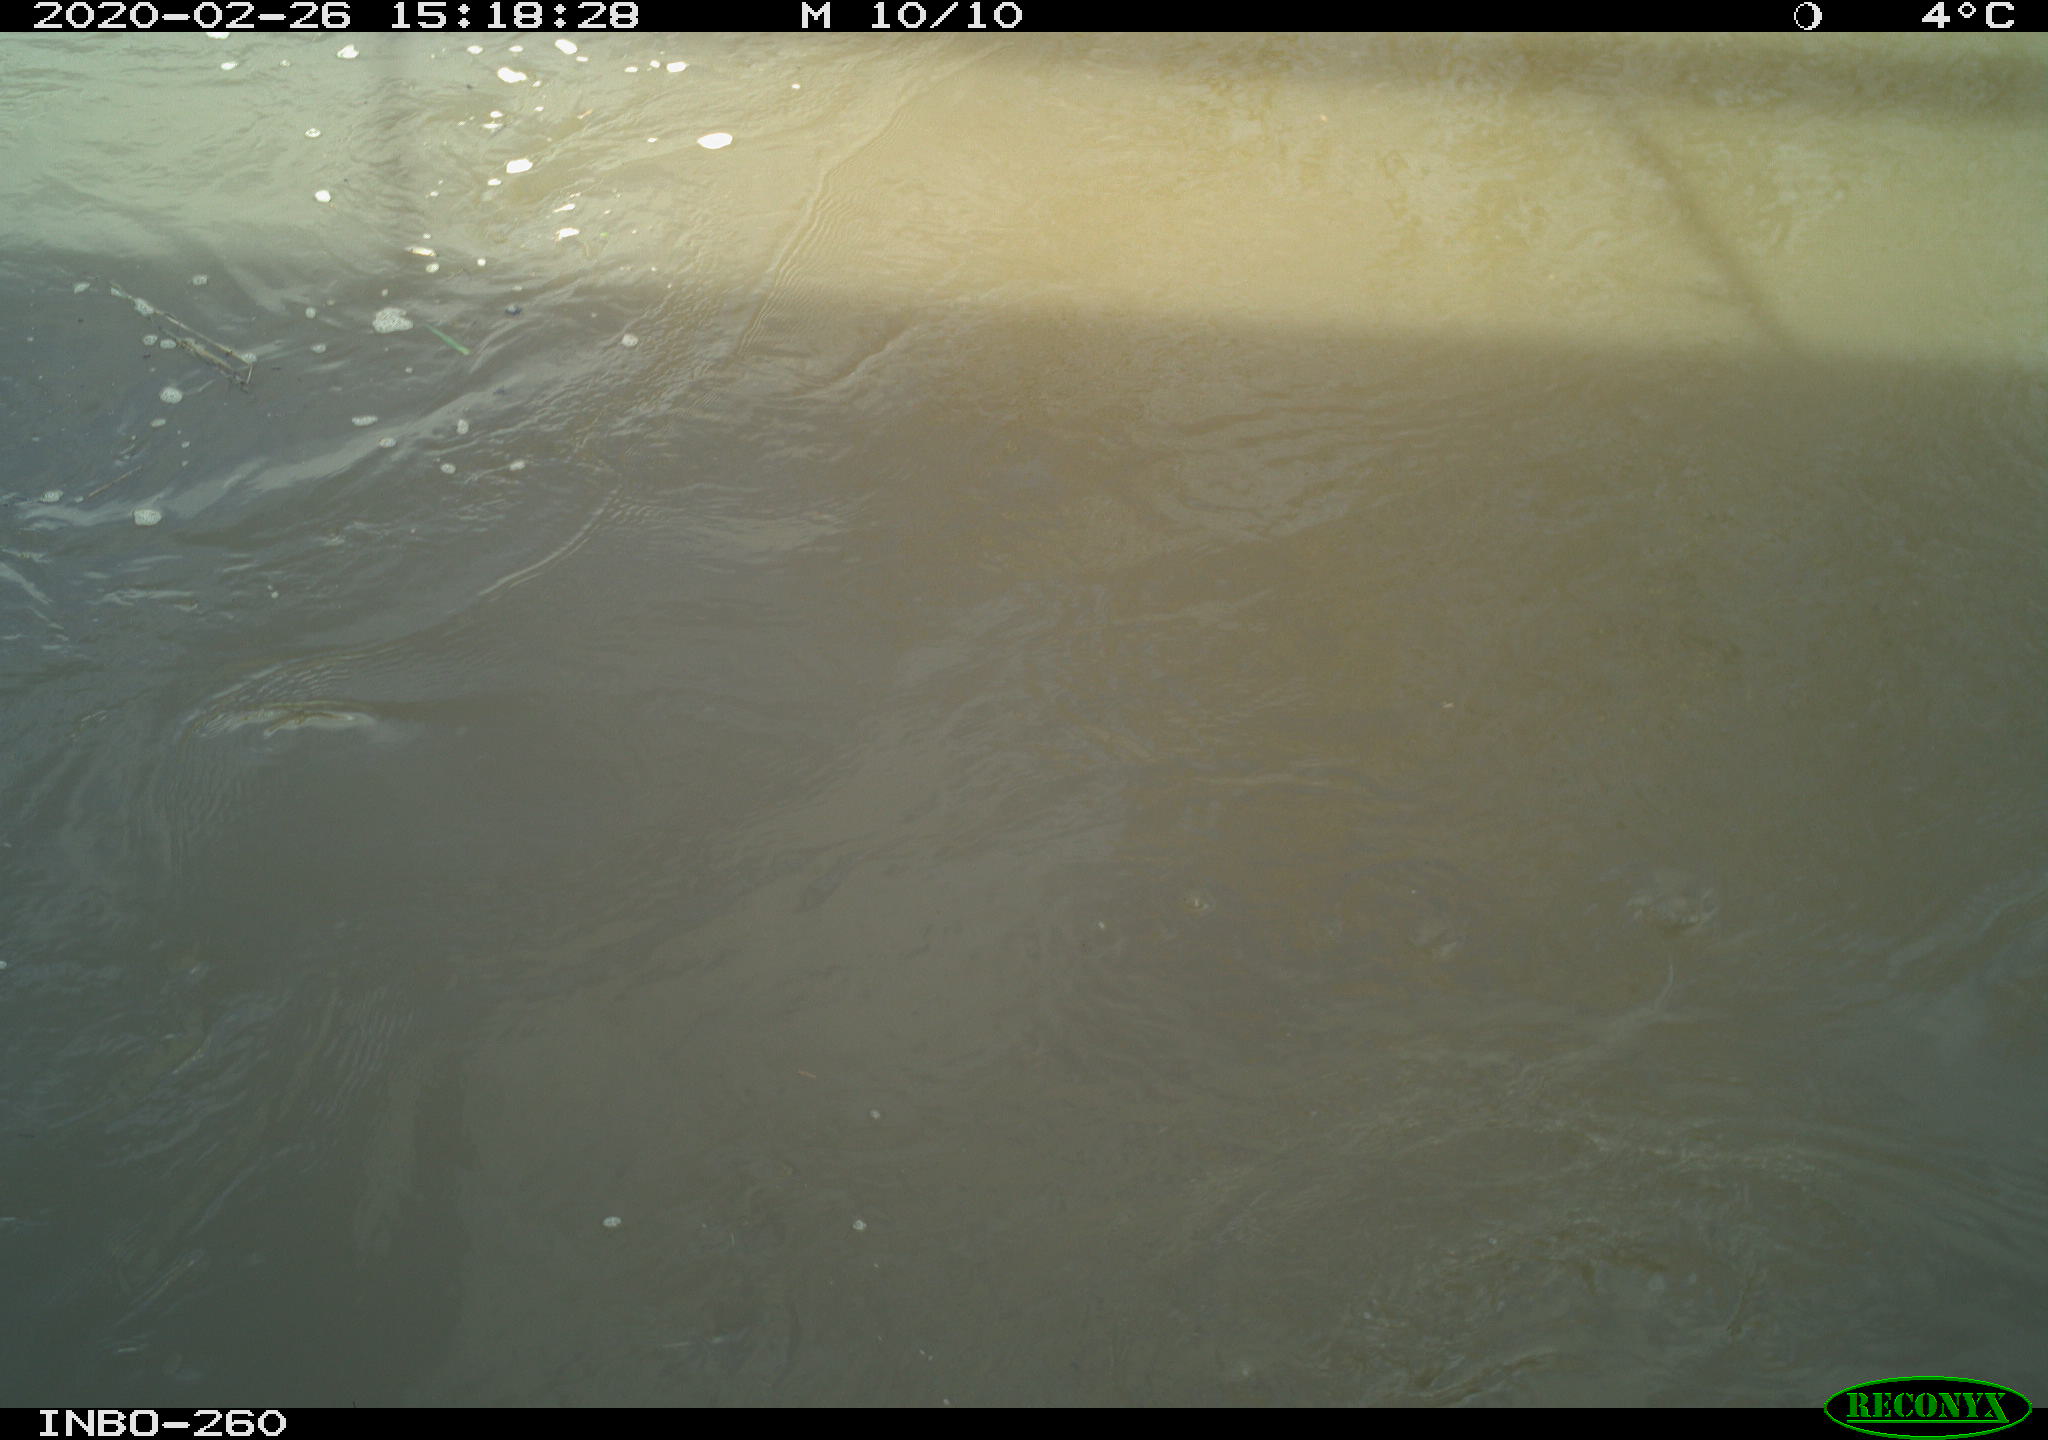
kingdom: Animalia
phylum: Chordata
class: Aves
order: Gruiformes
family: Rallidae
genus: Fulica
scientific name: Fulica atra
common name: Eurasian coot
